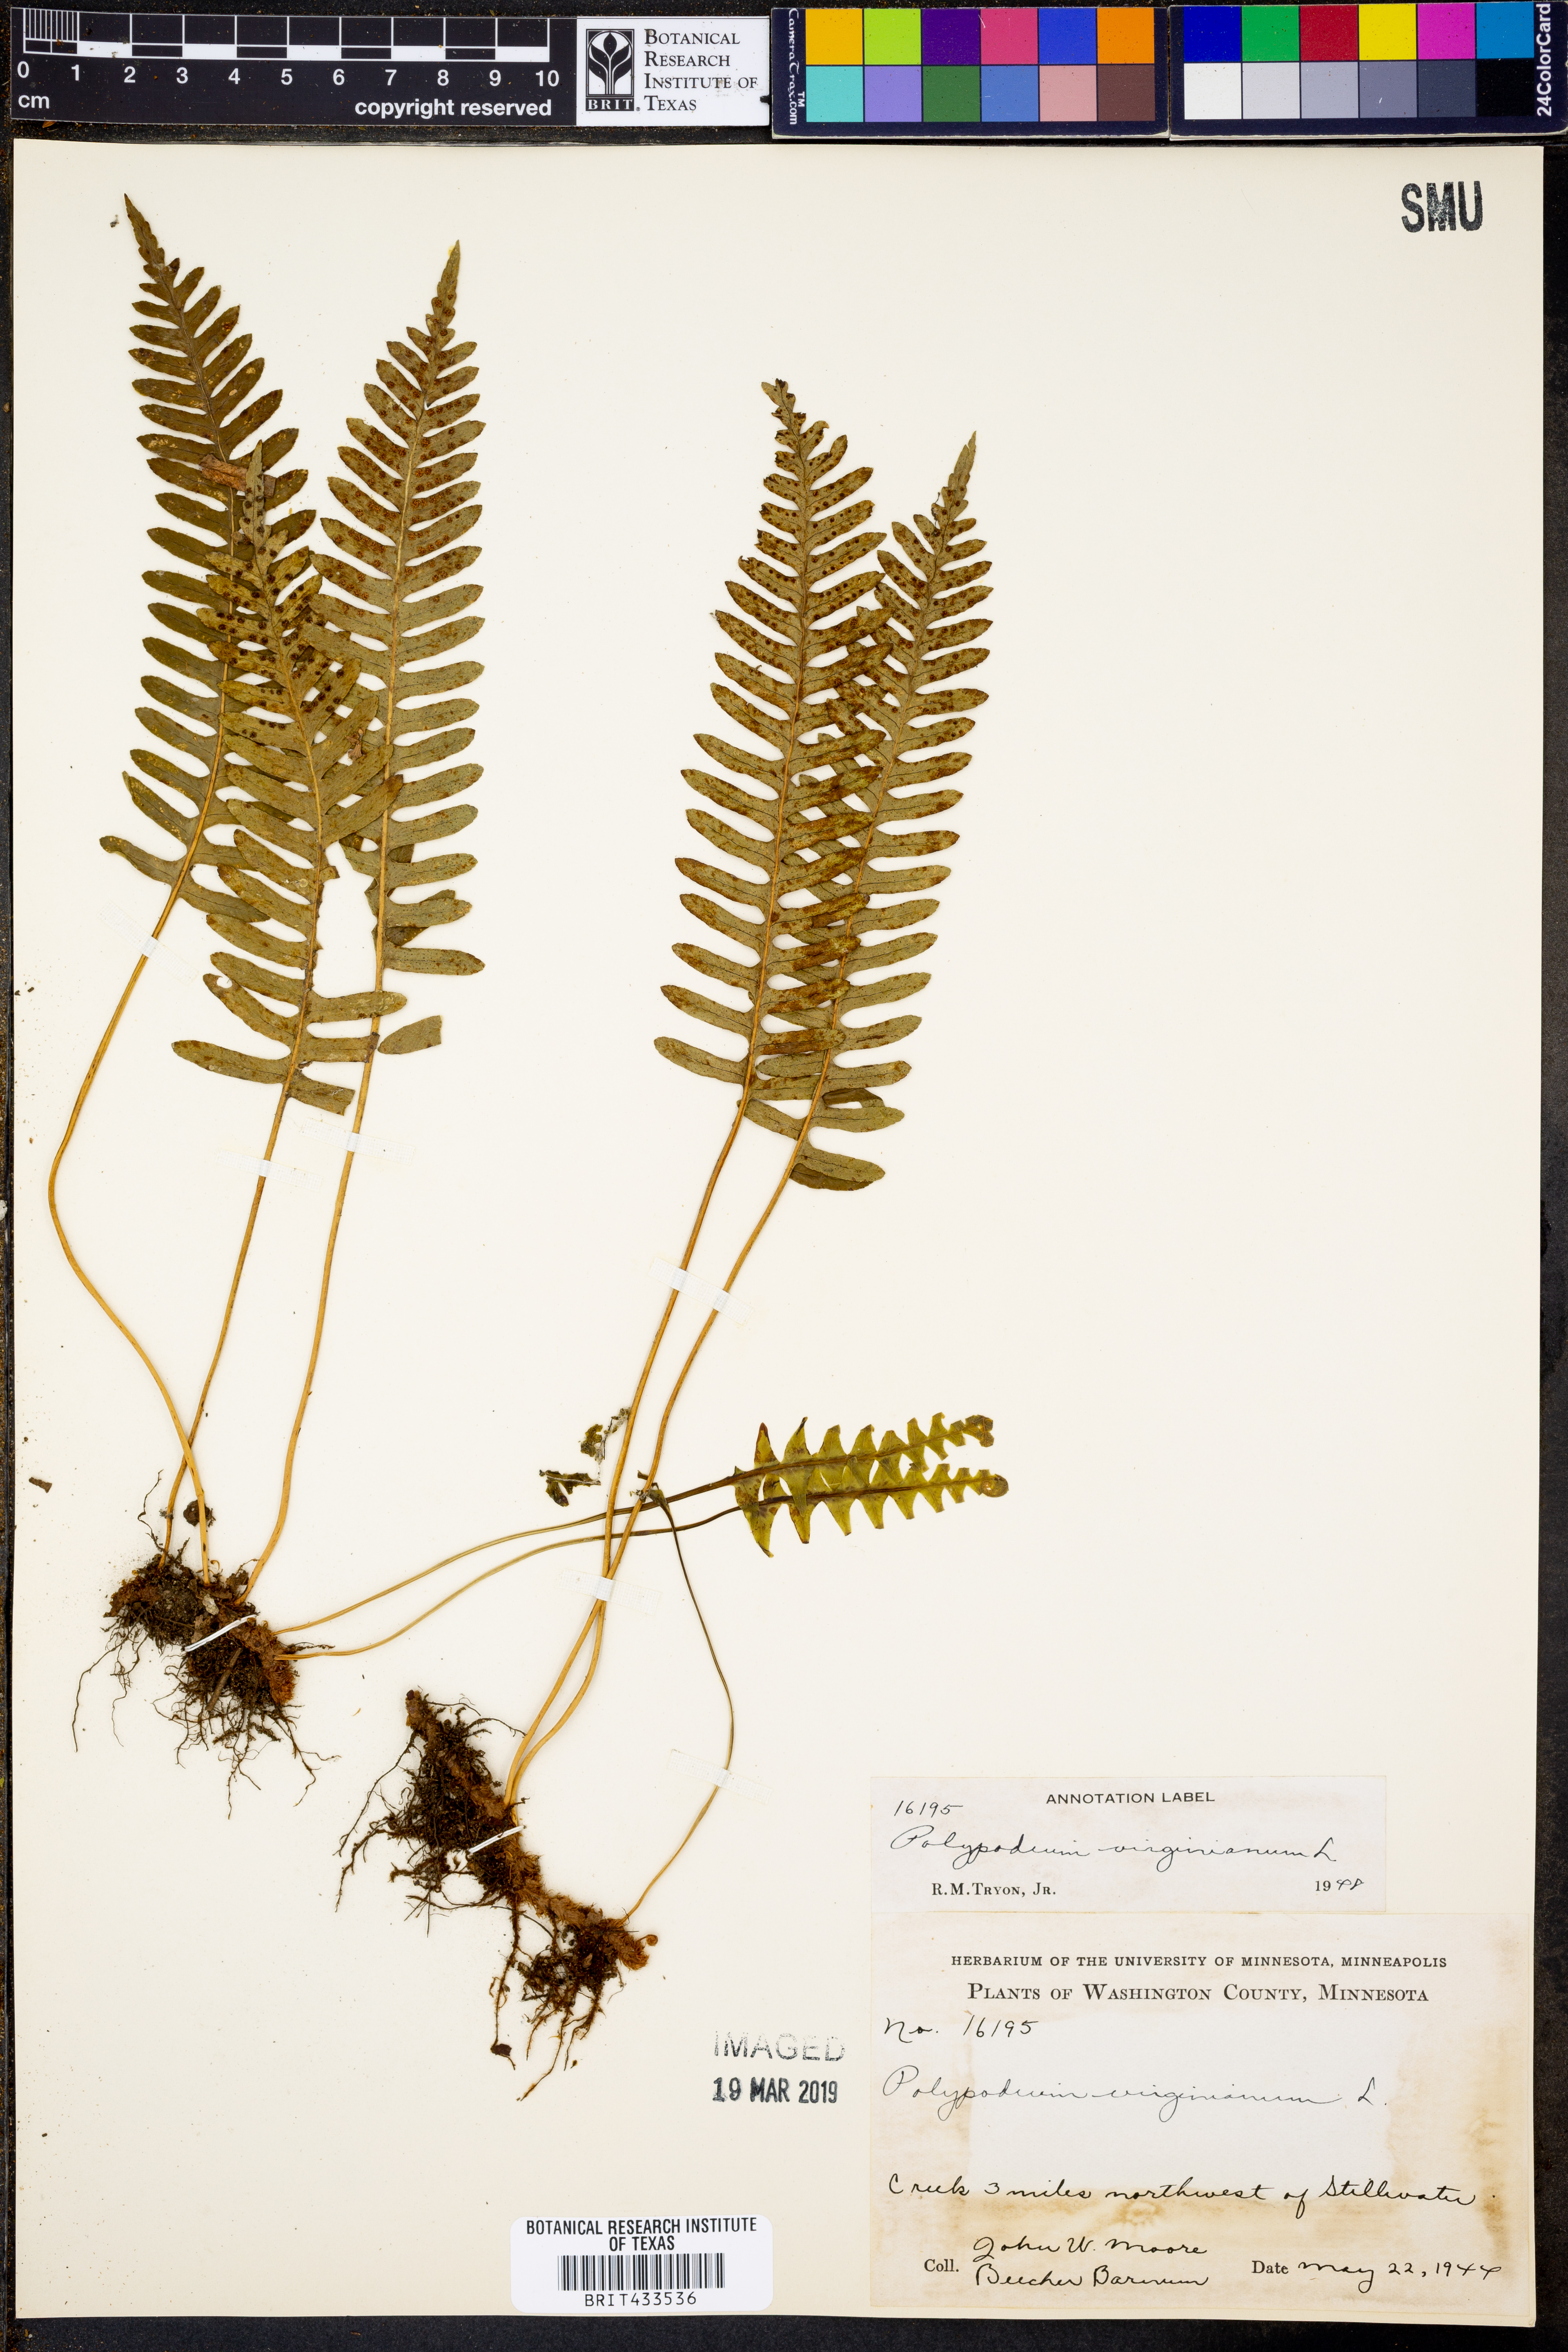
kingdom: Plantae
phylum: Tracheophyta
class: Polypodiopsida
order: Polypodiales
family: Polypodiaceae
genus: Polypodium
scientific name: Polypodium virginianum
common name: American wall fern
